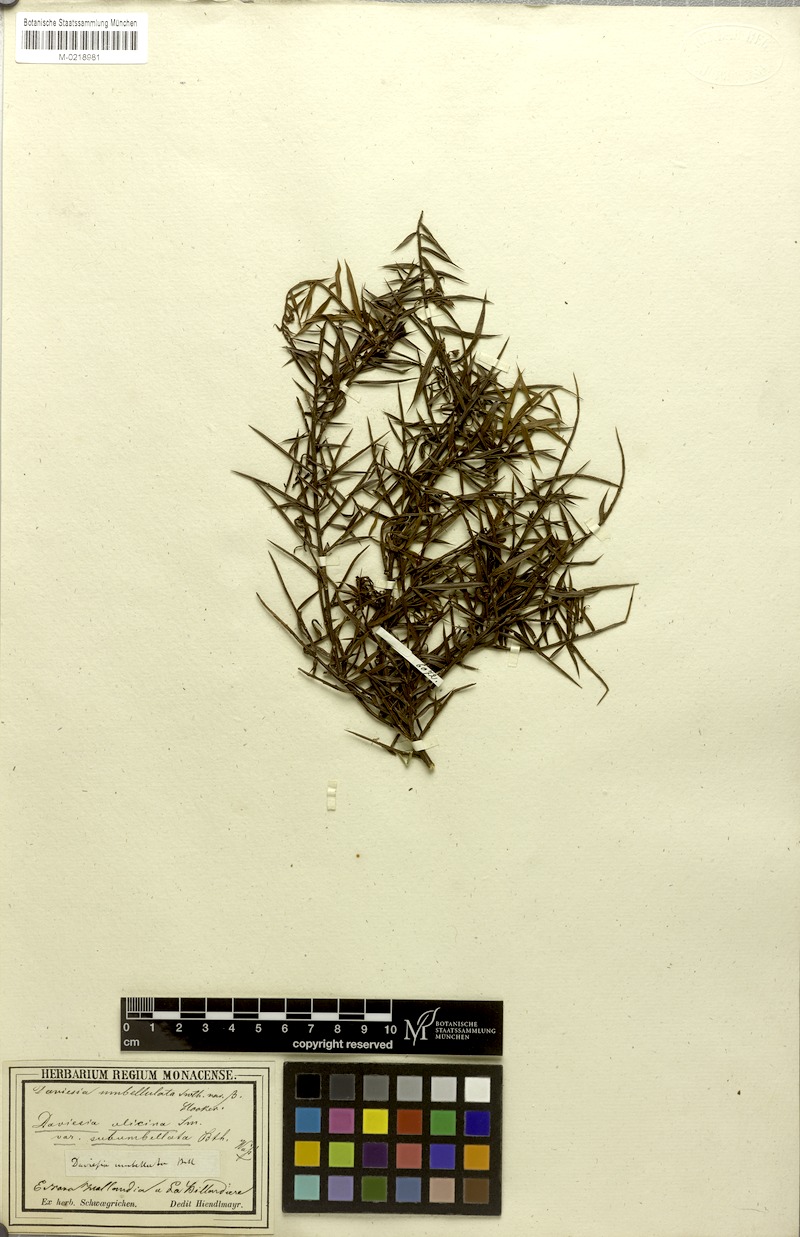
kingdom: Plantae
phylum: Tracheophyta
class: Magnoliopsida
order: Fabales
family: Fabaceae
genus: Daviesia
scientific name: Daviesia ulicifolia
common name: Gorse bitter-pea
